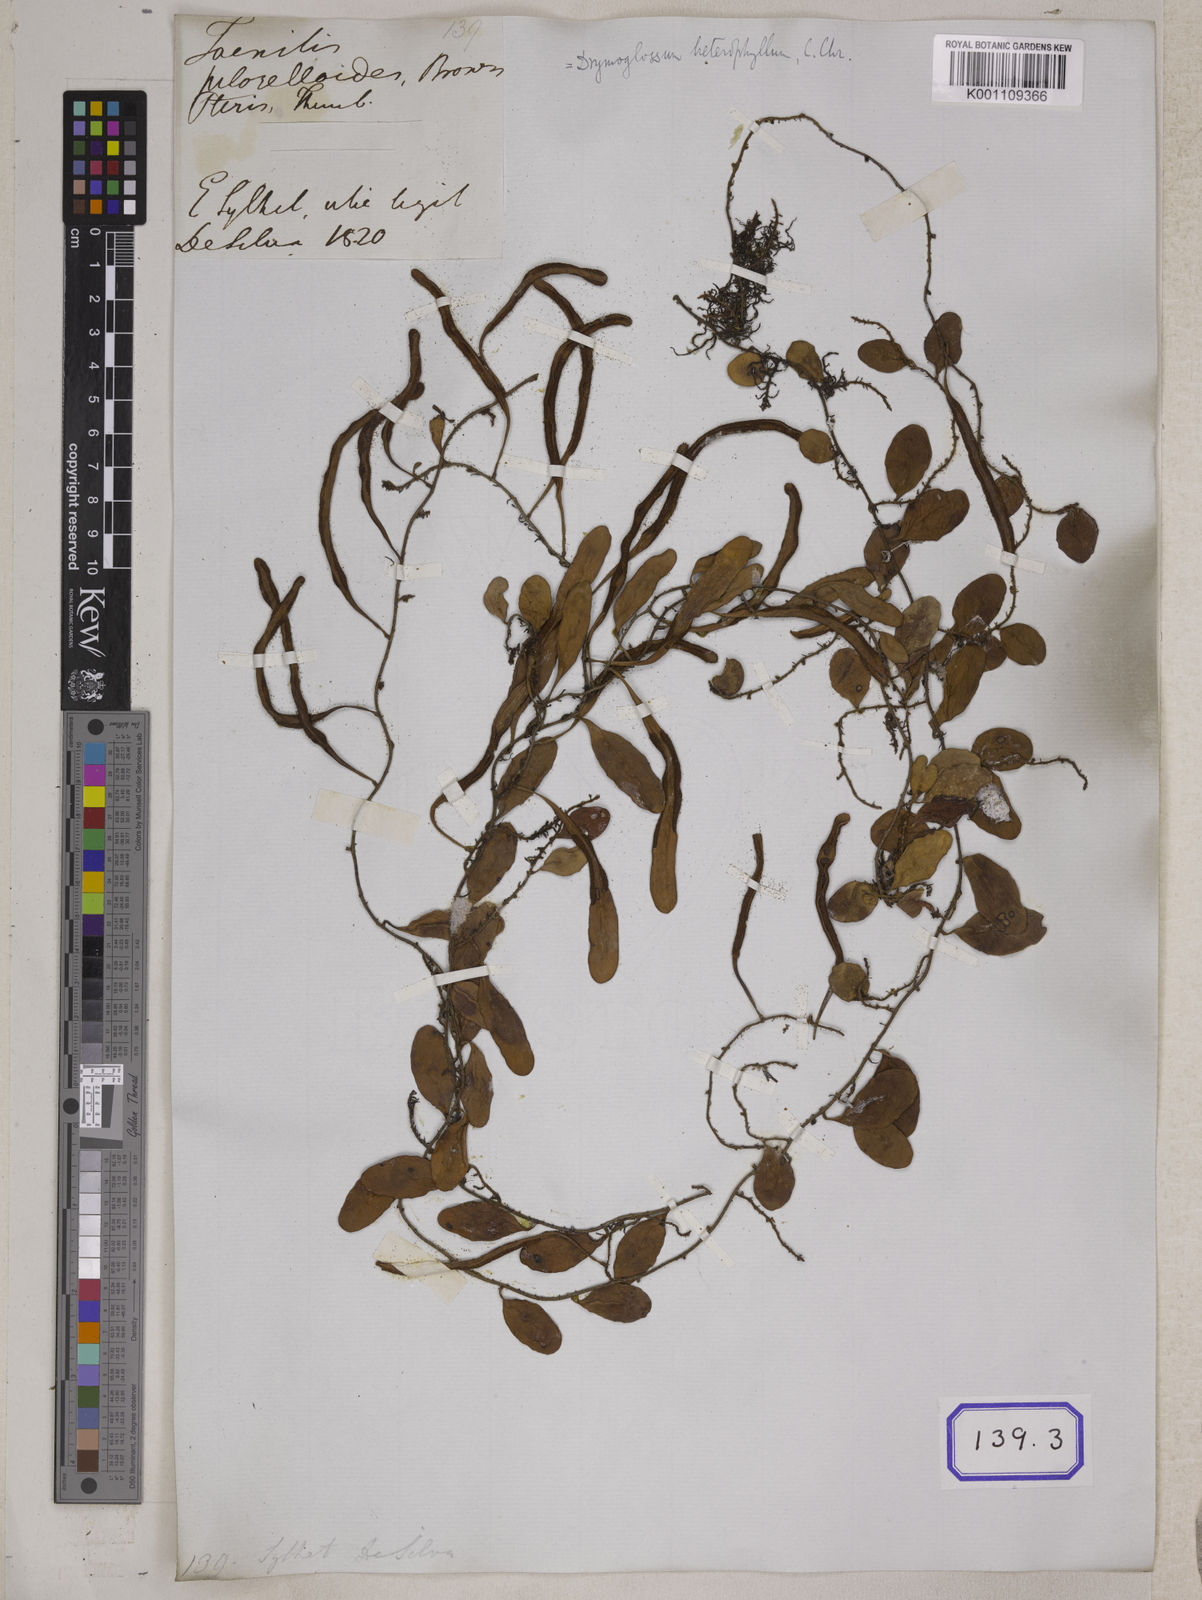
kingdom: Plantae
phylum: Tracheophyta
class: Polypodiopsida
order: Polypodiales
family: Polypodiaceae
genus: Pyrrosia
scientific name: Pyrrosia piloselloides
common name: Epiphytic creeping fern
